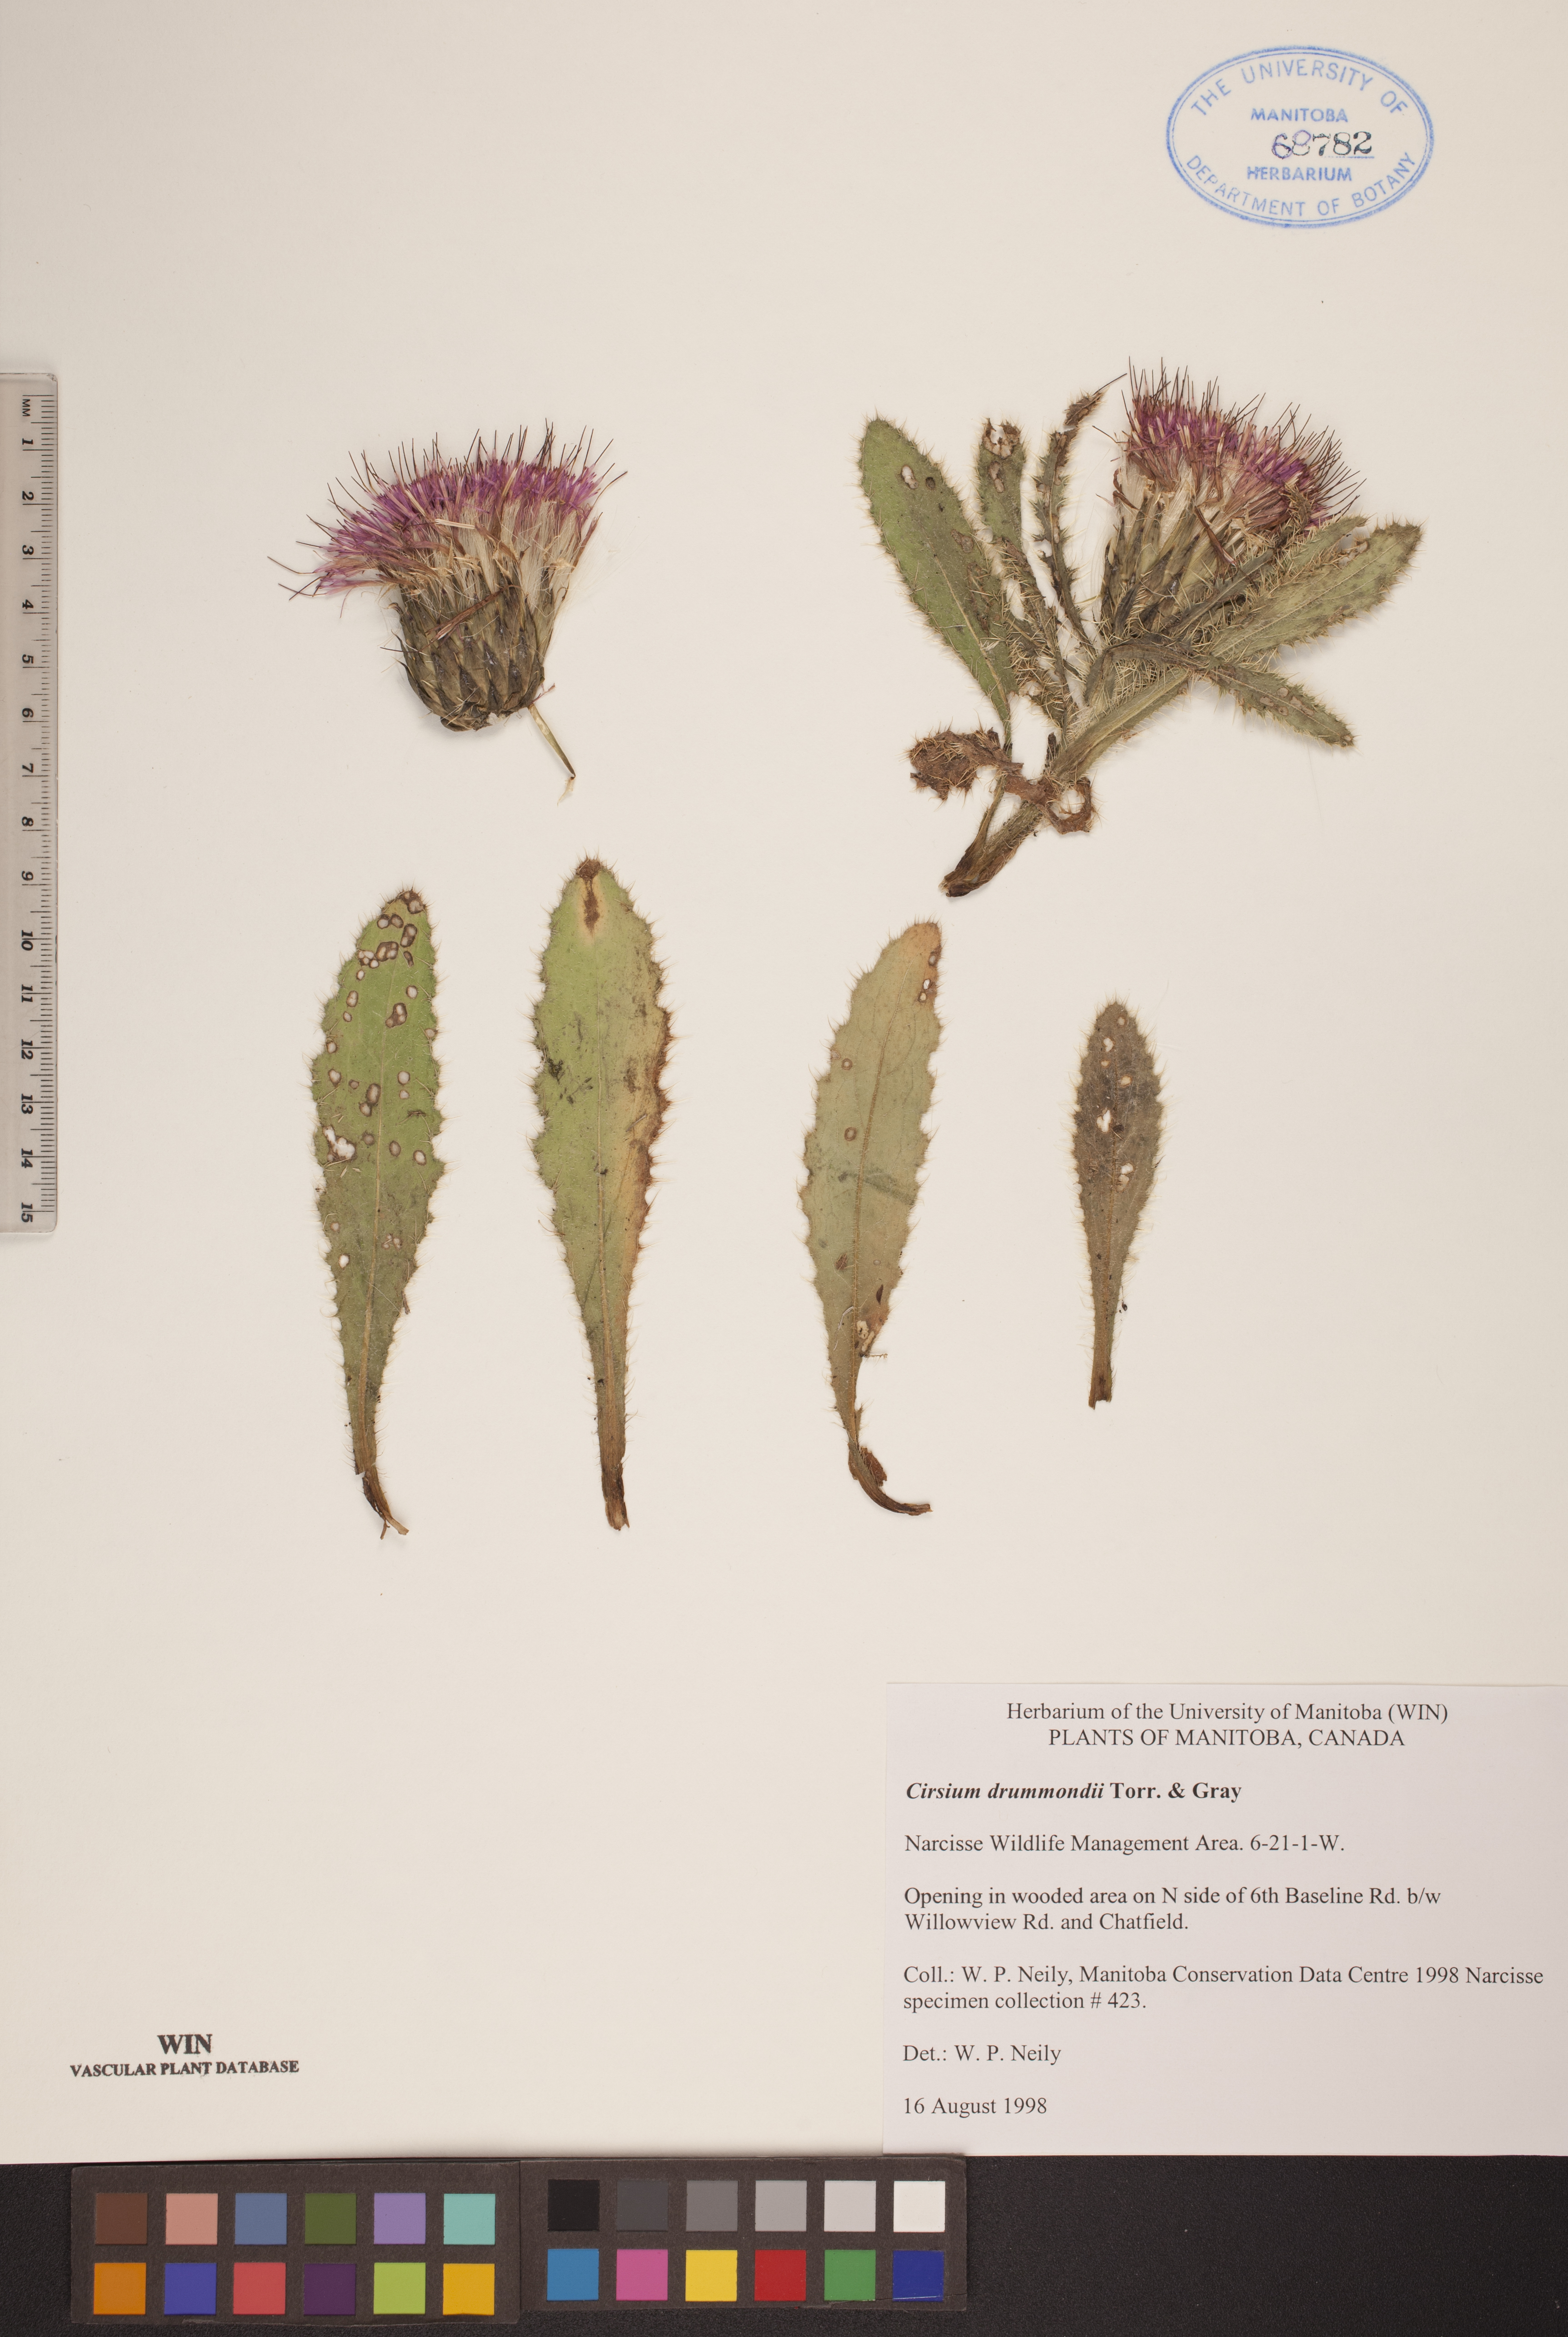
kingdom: Plantae
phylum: Tracheophyta
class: Magnoliopsida
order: Asterales
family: Asteraceae
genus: Cirsium
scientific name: Cirsium drummondii
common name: Drummond's thistle
